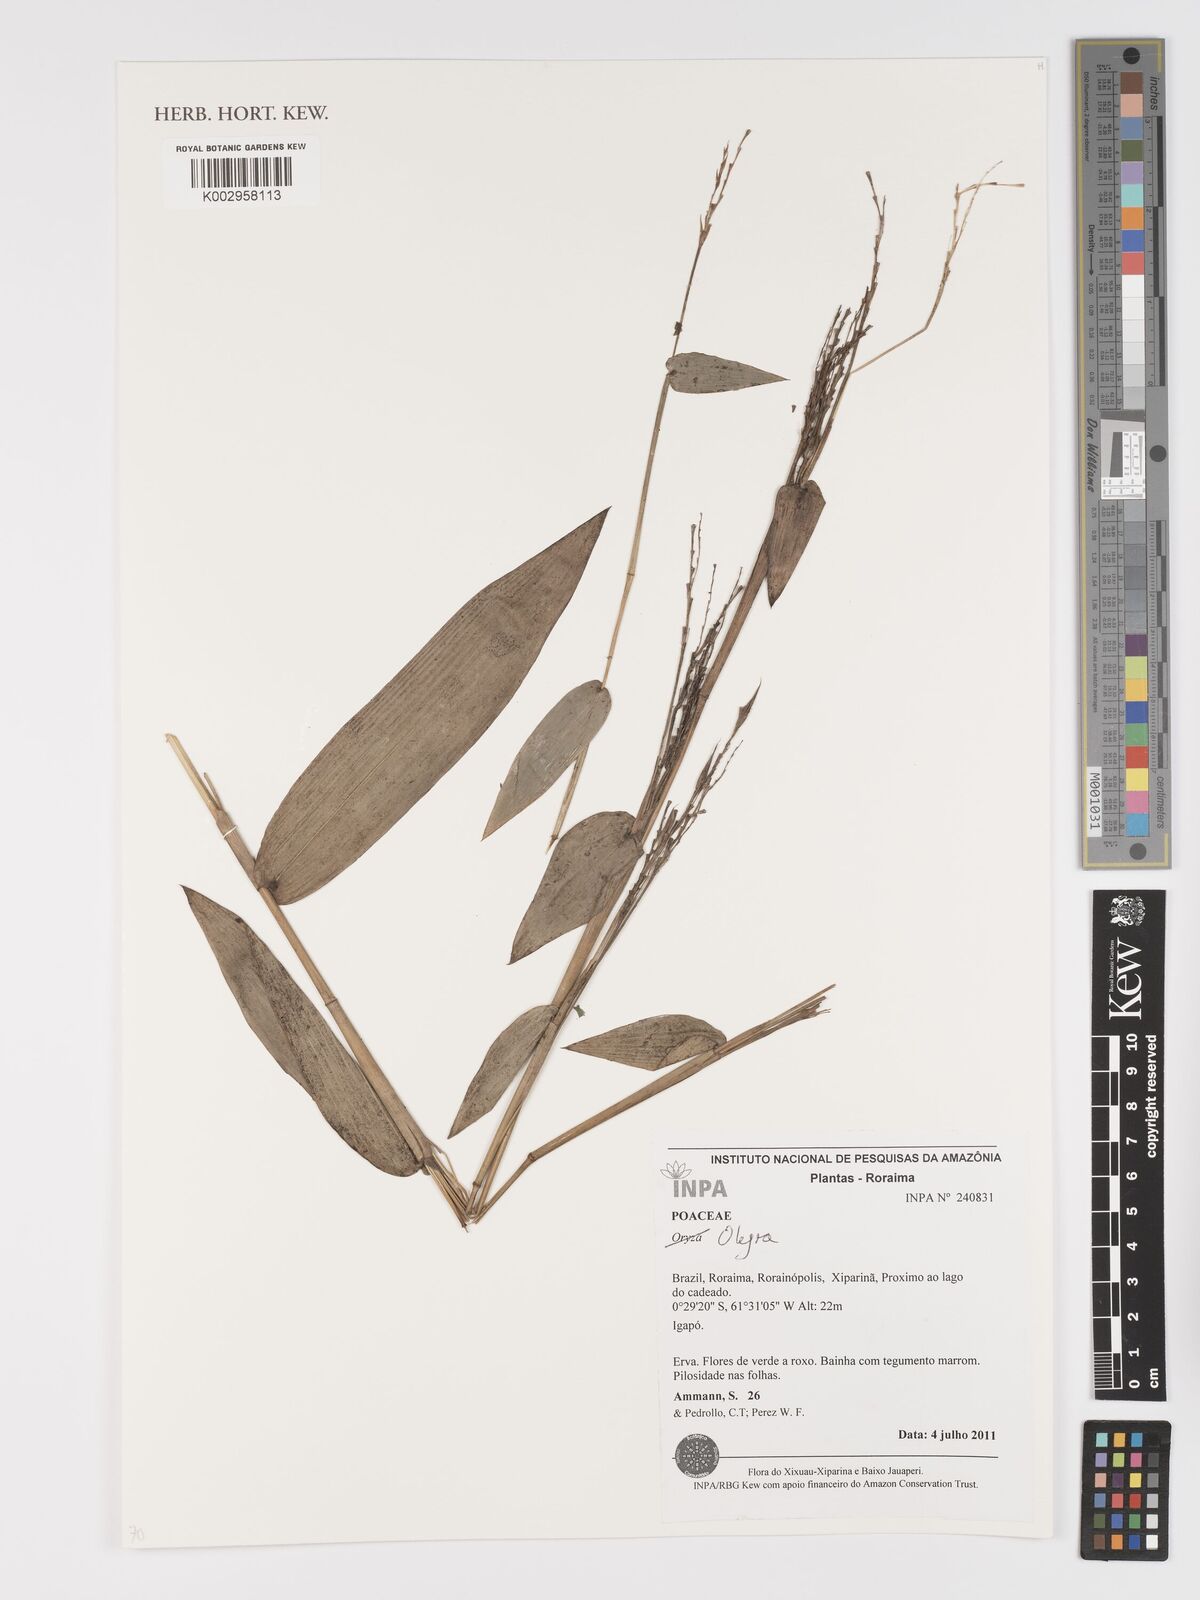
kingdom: Plantae
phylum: Tracheophyta
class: Liliopsida
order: Poales
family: Poaceae
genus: Olyra
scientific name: Olyra
